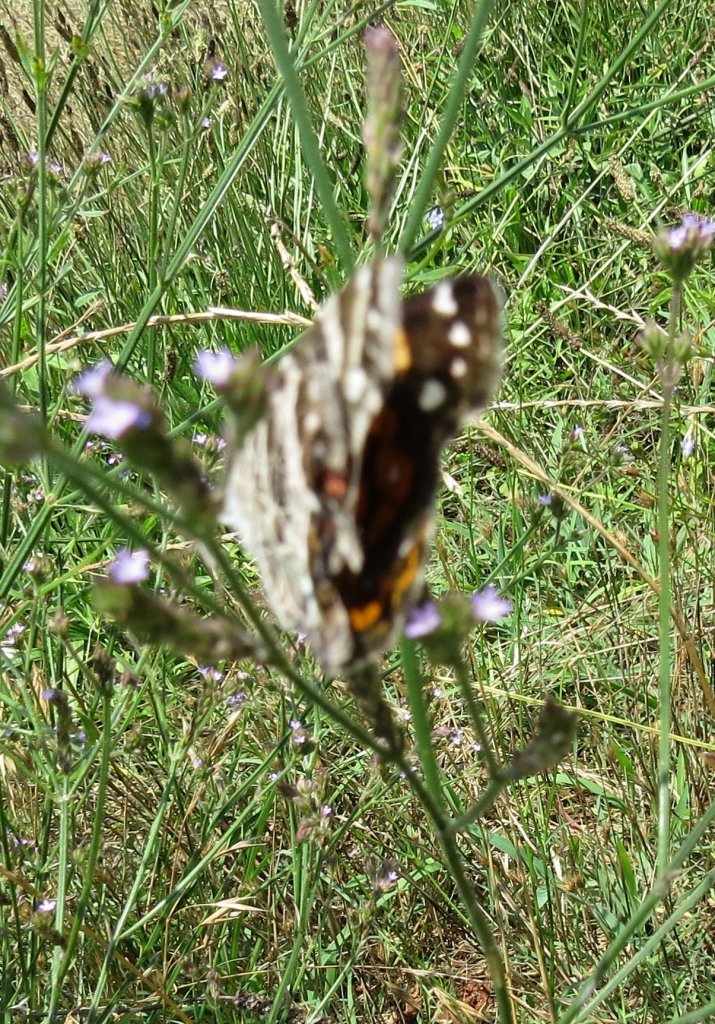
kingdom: Animalia
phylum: Arthropoda
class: Insecta
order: Lepidoptera
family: Nymphalidae
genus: Vanessa
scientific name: Vanessa virginiensis
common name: American Lady
